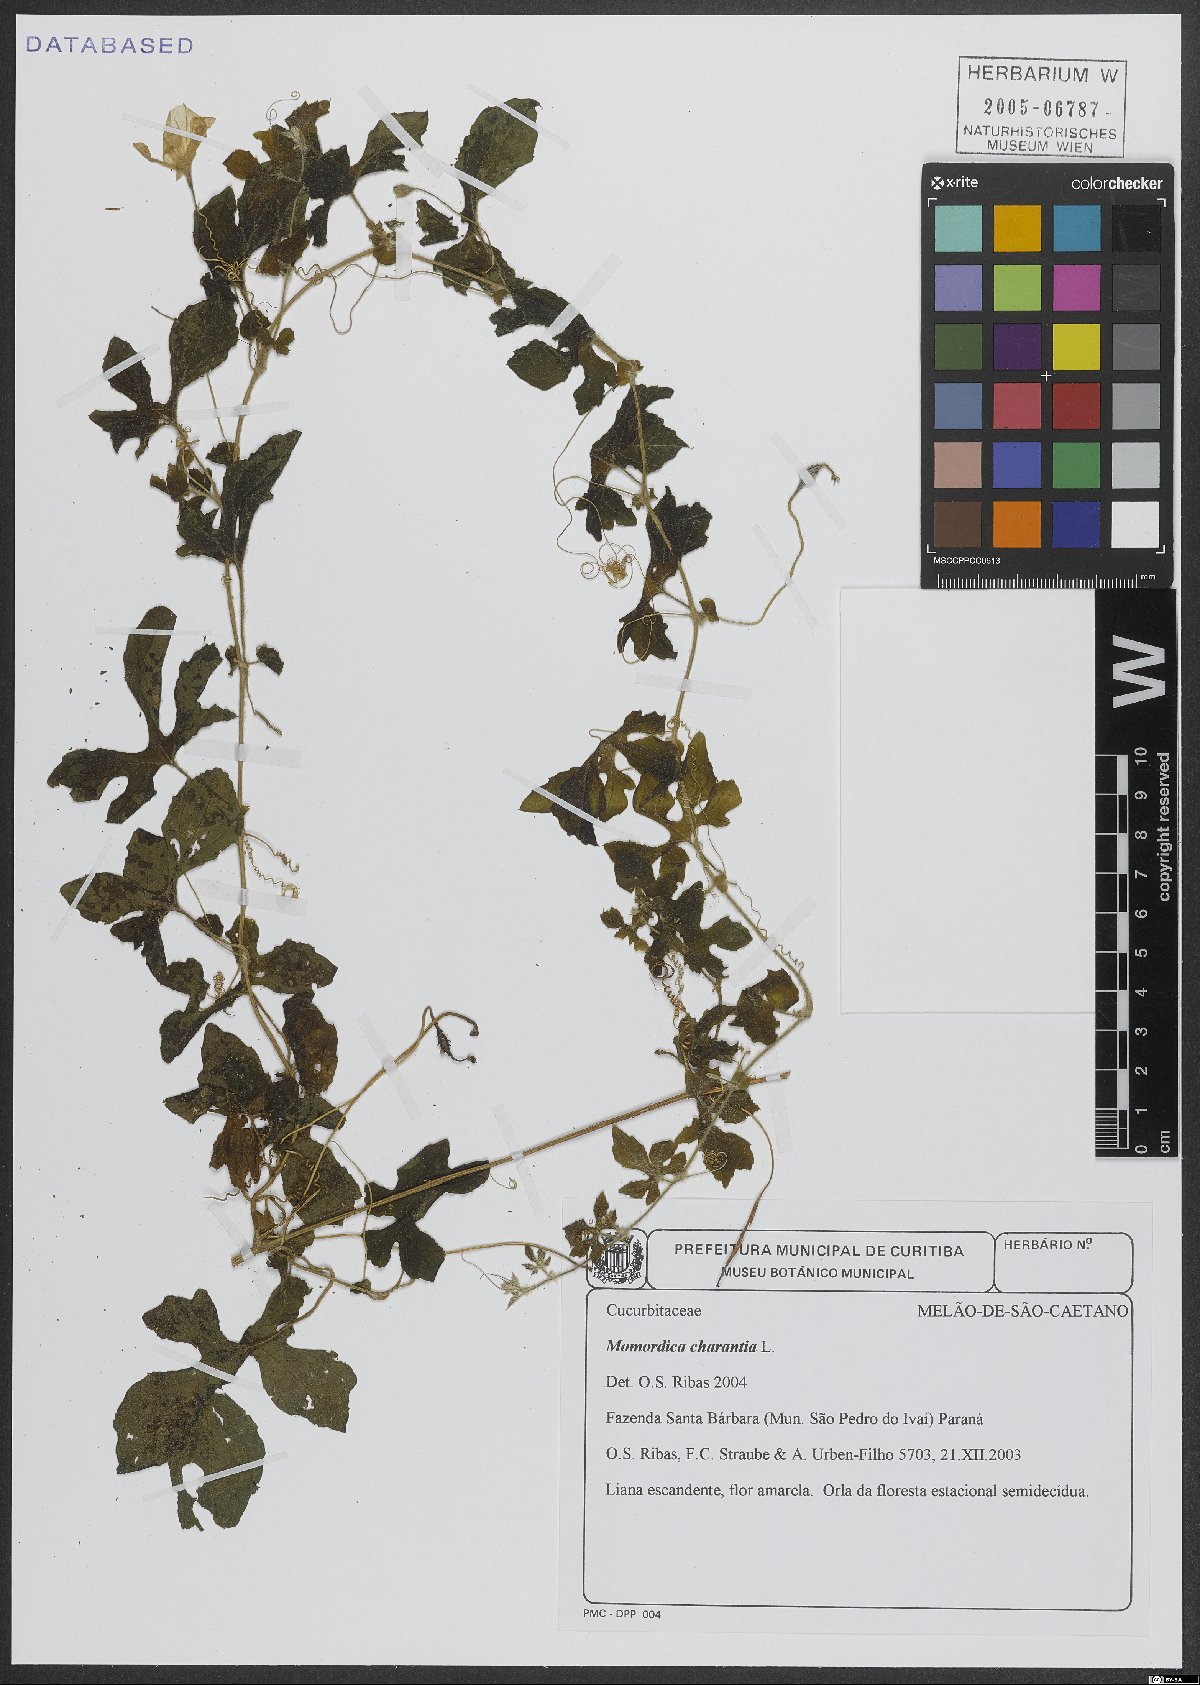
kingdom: Plantae
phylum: Tracheophyta
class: Magnoliopsida
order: Cucurbitales
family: Cucurbitaceae
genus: Momordica
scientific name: Momordica charantia
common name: Balsampear
